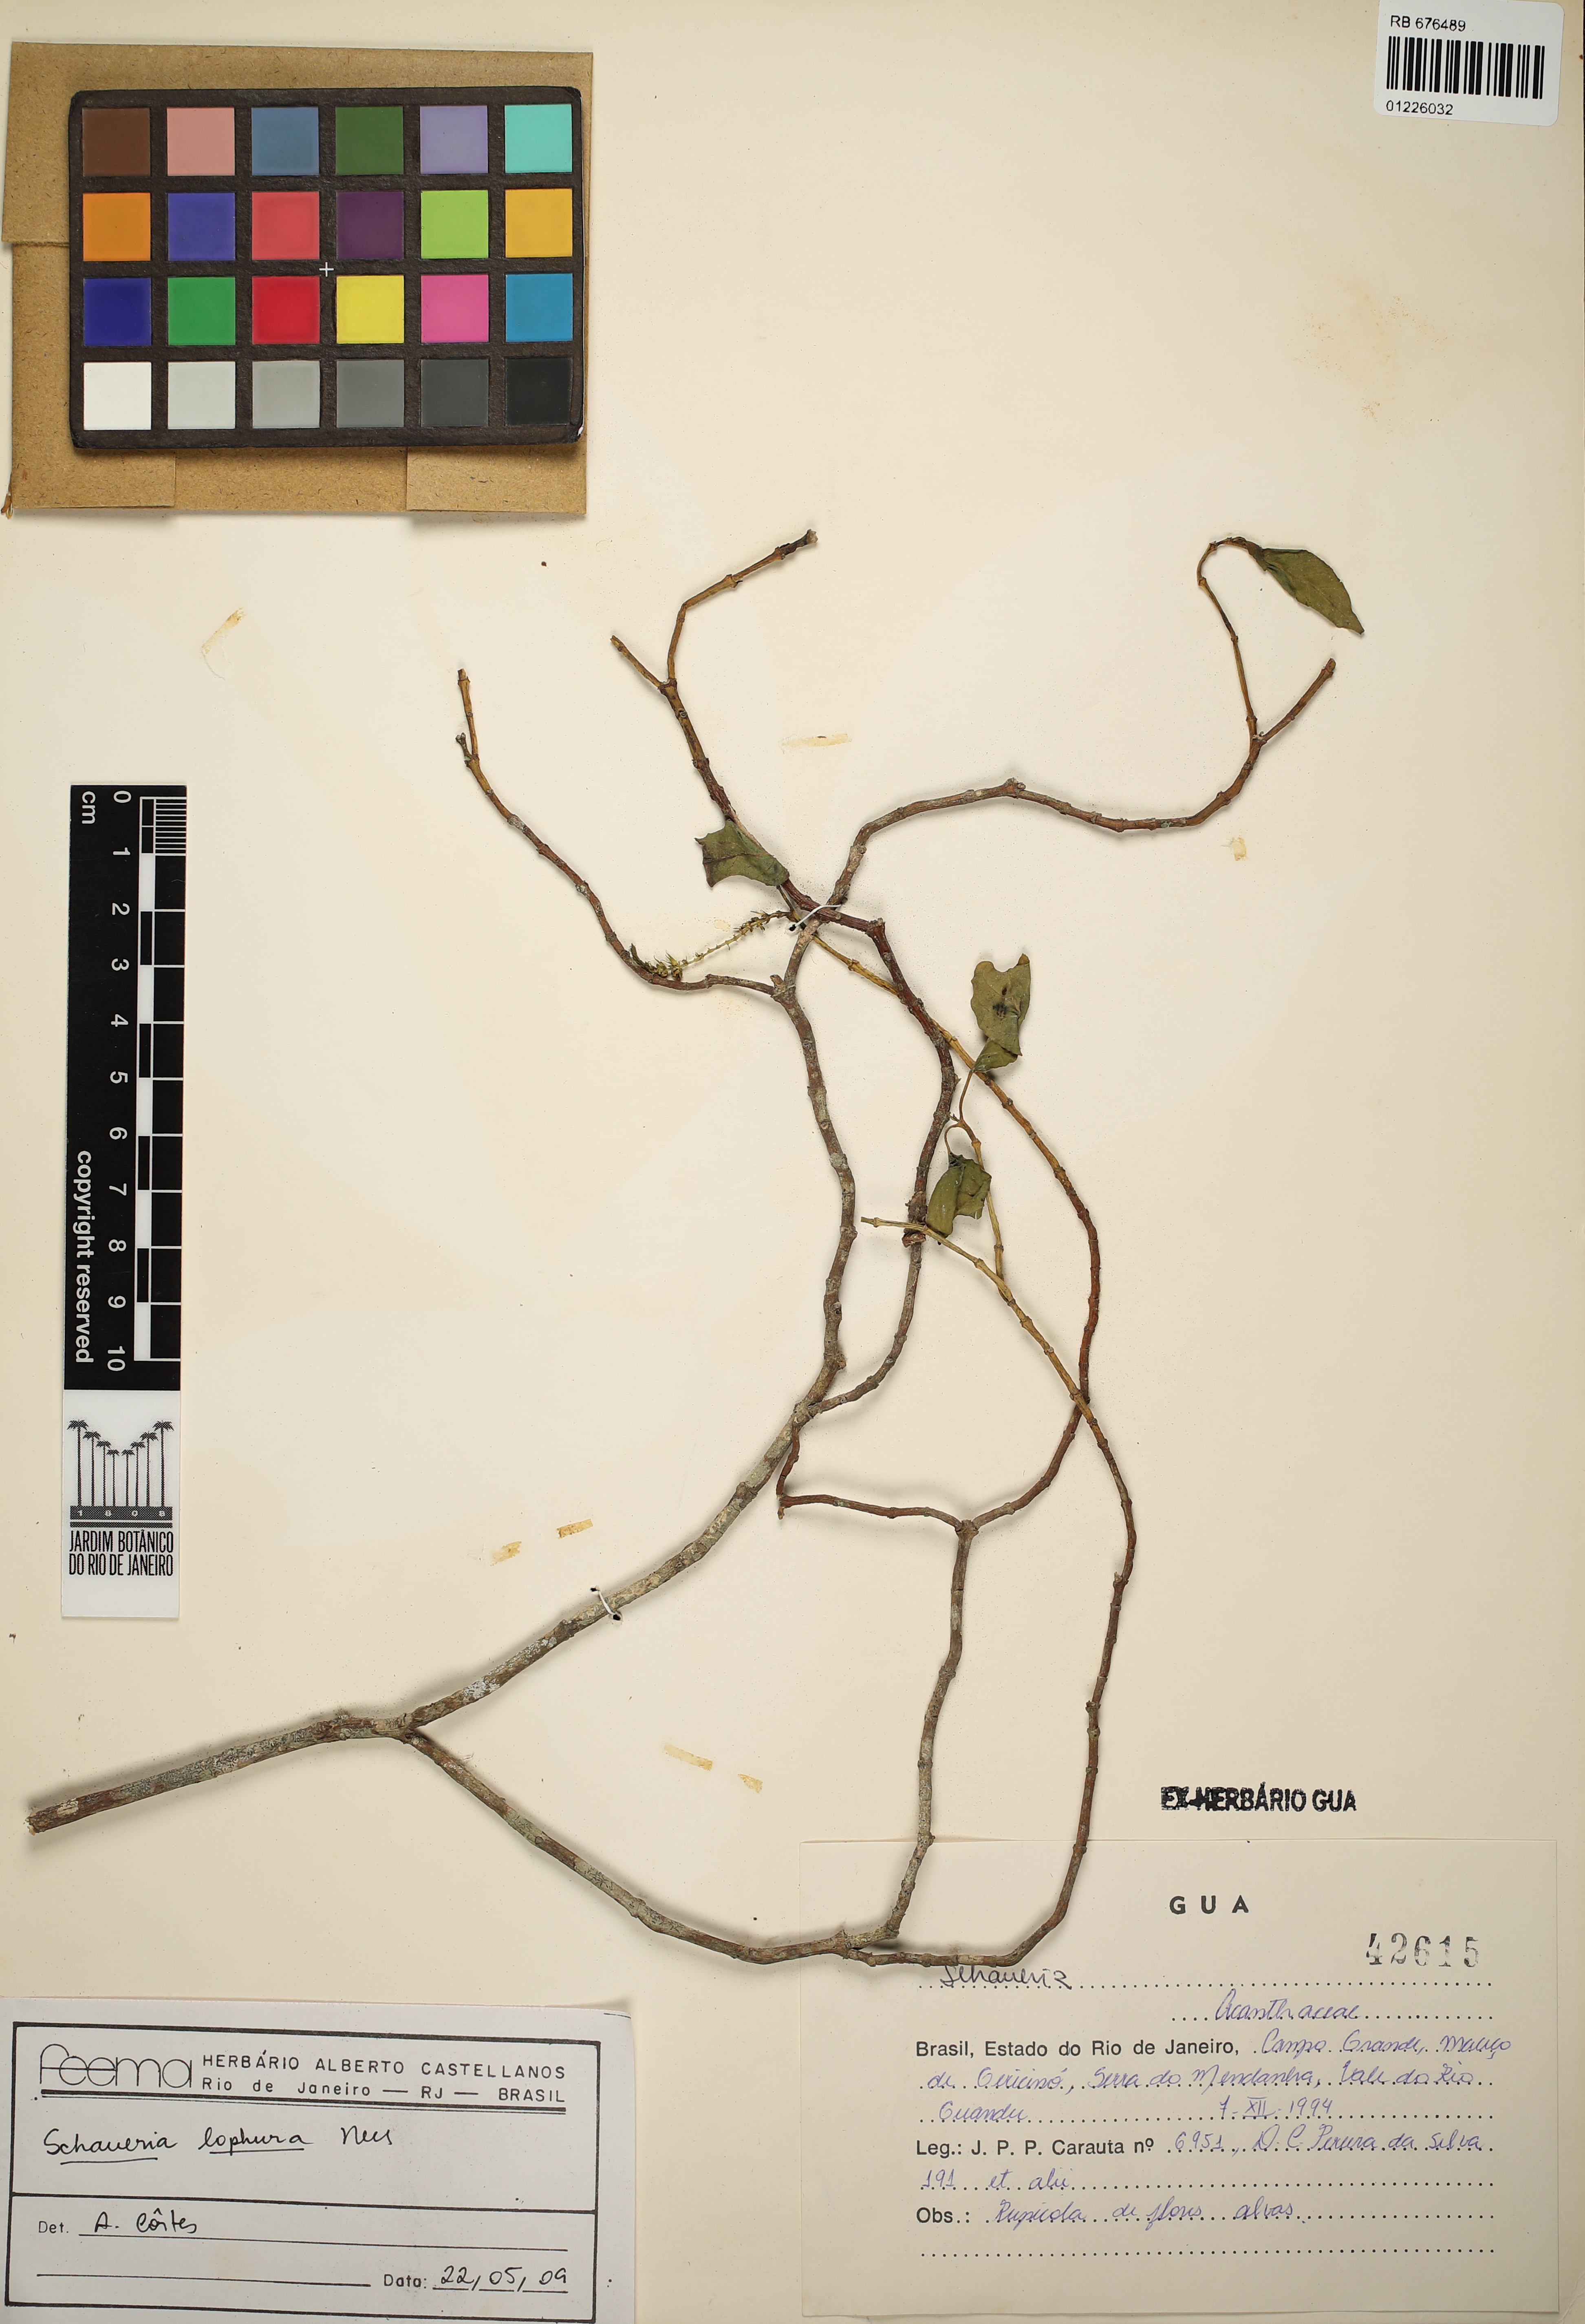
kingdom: Plantae
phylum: Tracheophyta
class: Magnoliopsida
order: Lamiales
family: Acanthaceae
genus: Schaueria
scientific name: Schaueria litoralis
